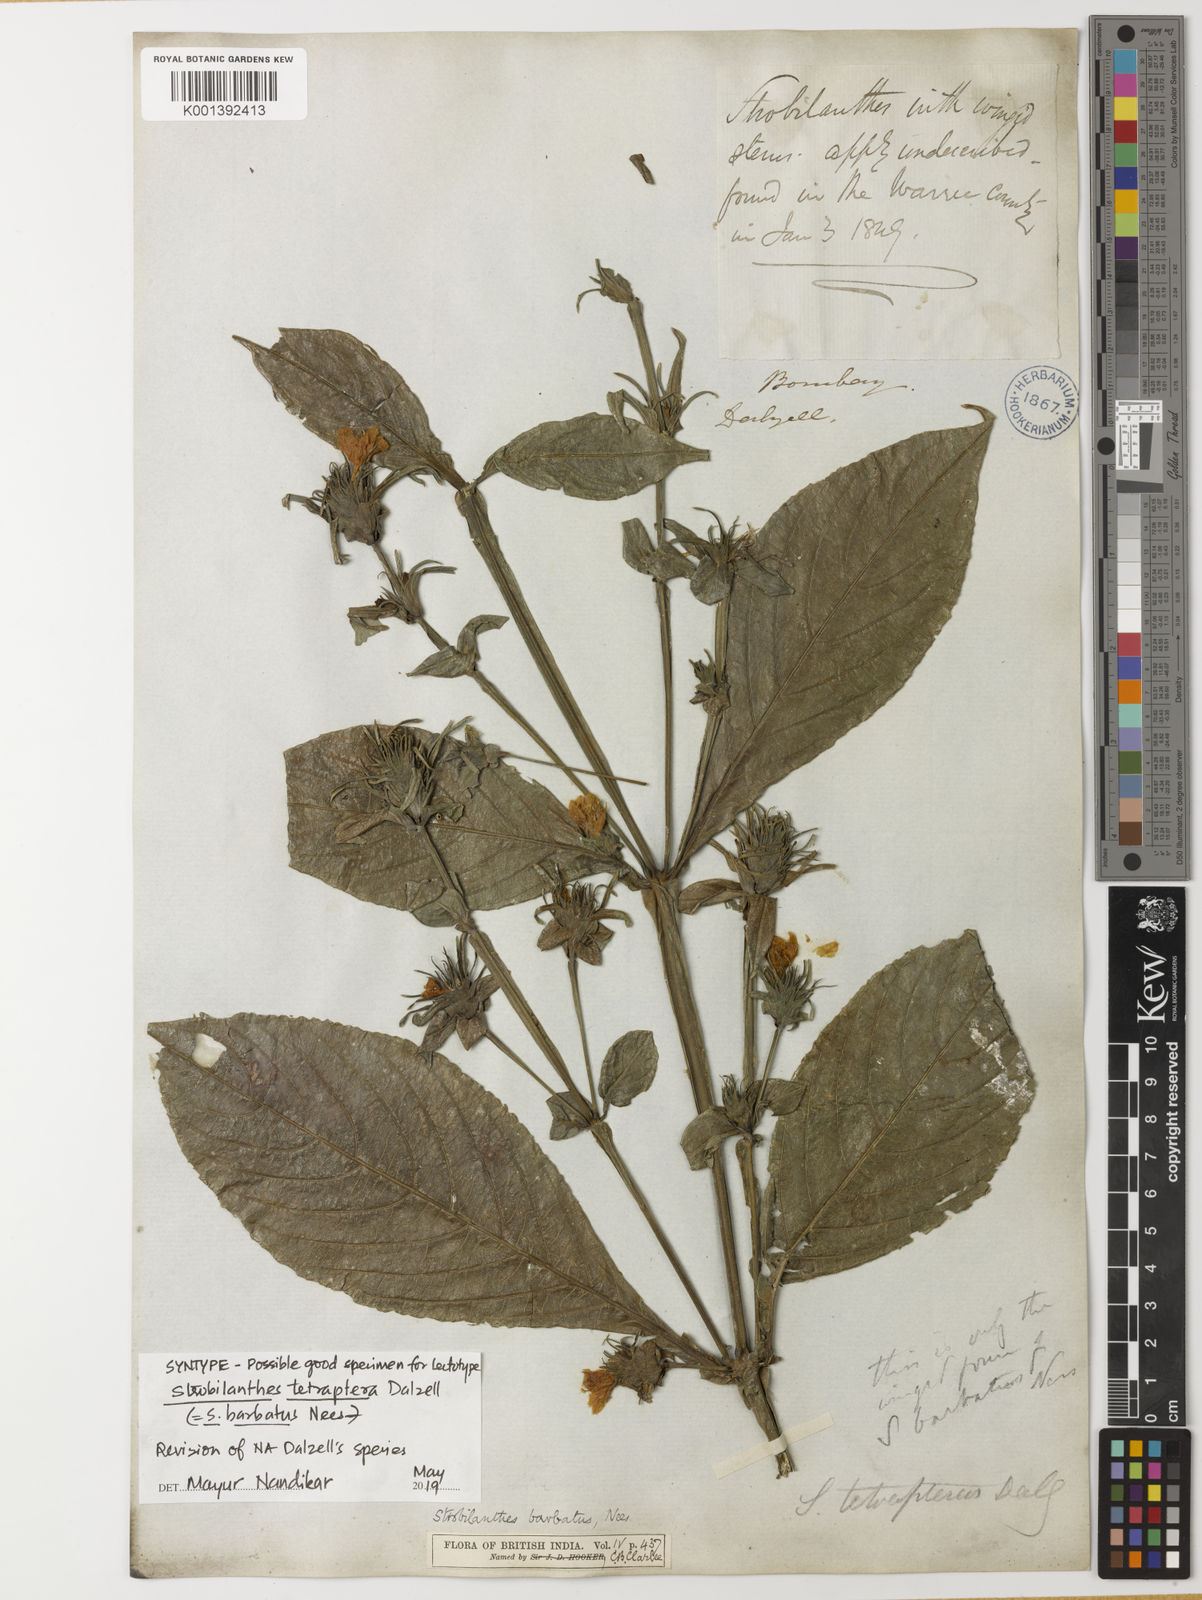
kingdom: Plantae
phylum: Tracheophyta
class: Magnoliopsida
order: Lamiales
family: Acanthaceae
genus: Strobilanthes
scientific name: Strobilanthes barbata
